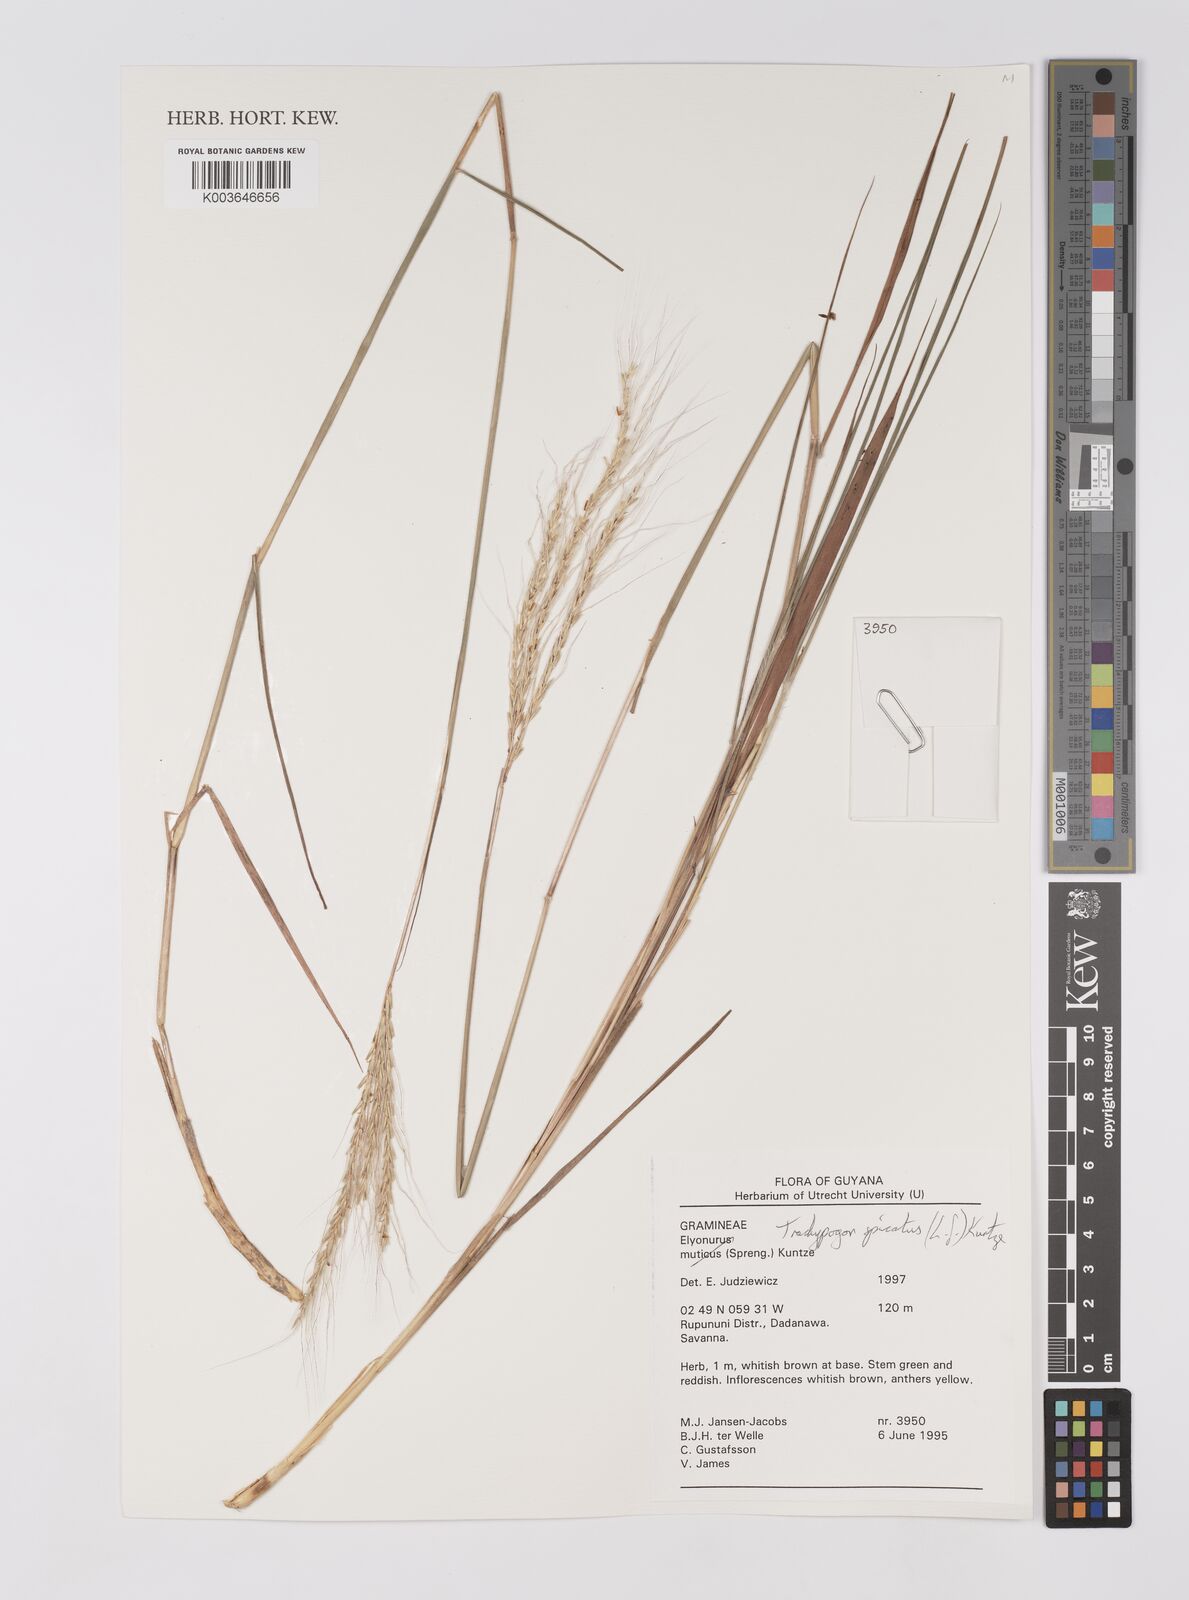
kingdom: Plantae
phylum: Tracheophyta
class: Liliopsida
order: Poales
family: Poaceae
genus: Trachypogon
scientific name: Trachypogon spicatus
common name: Crinkle-awn
